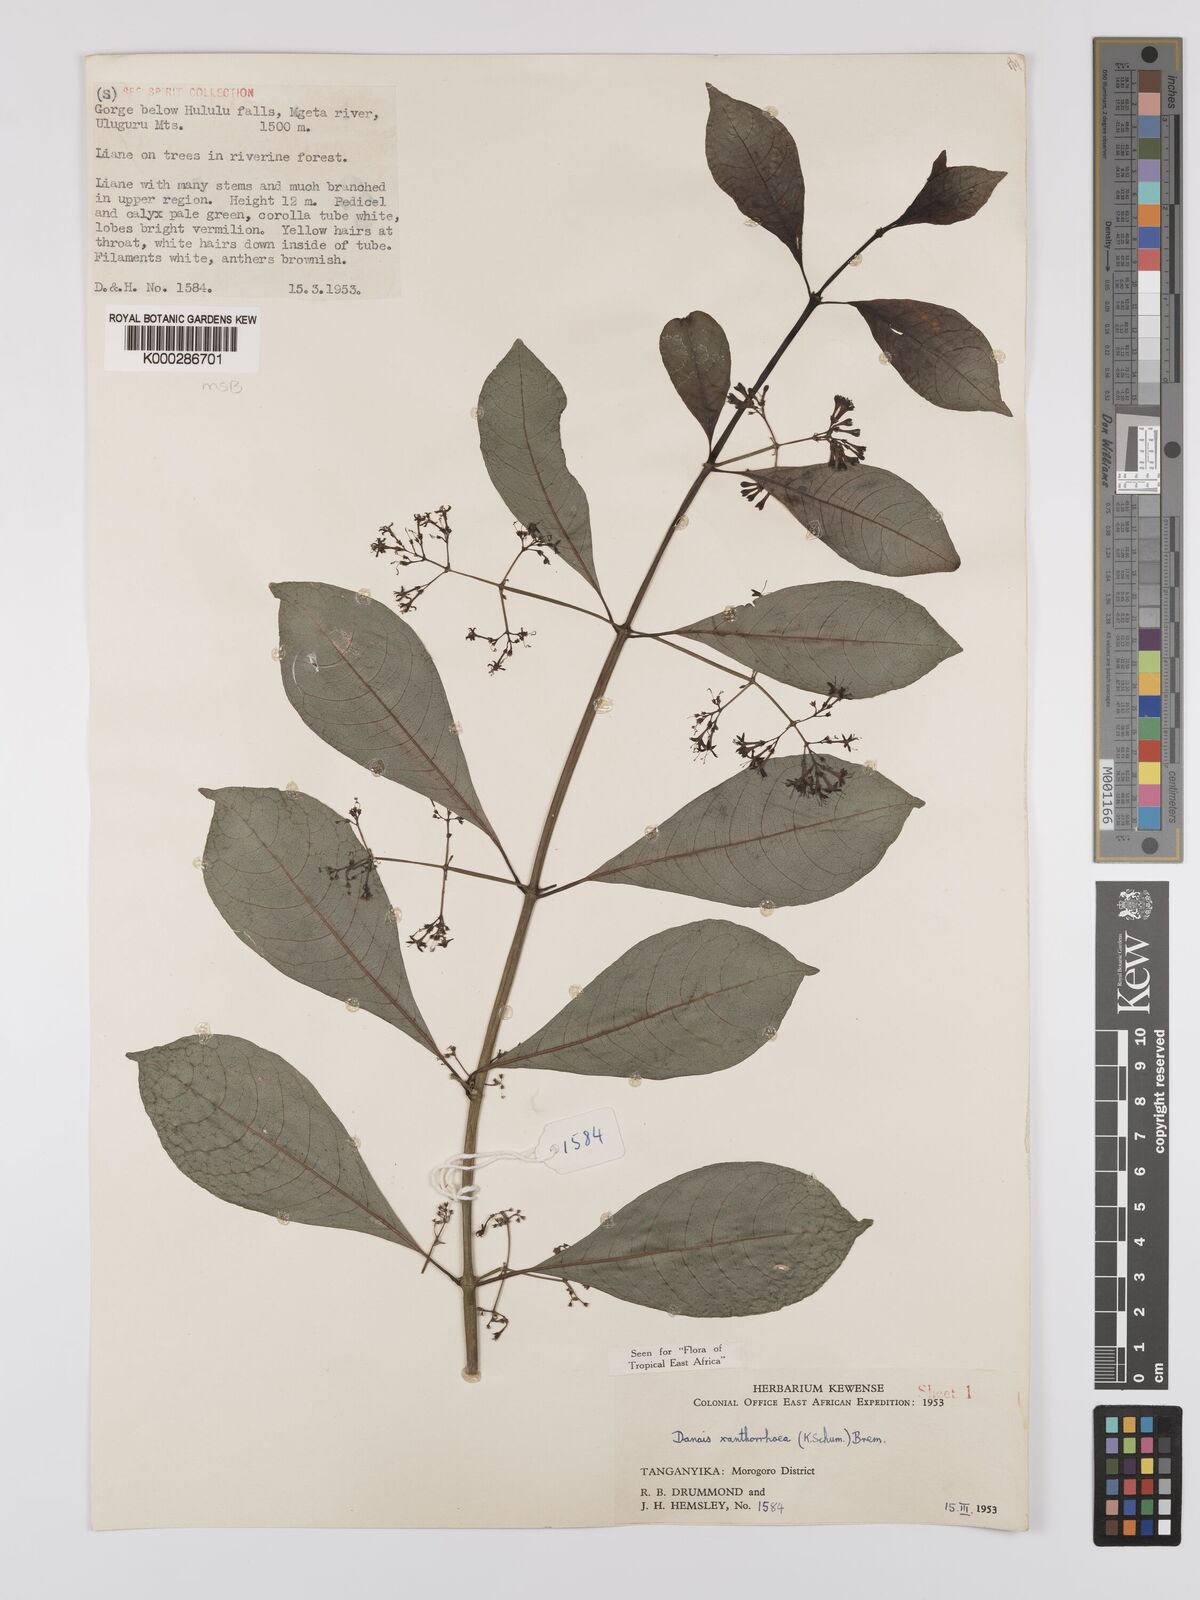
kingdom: Plantae
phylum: Tracheophyta
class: Magnoliopsida
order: Gentianales
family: Rubiaceae
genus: Danais
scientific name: Danais xanthorrhoea
